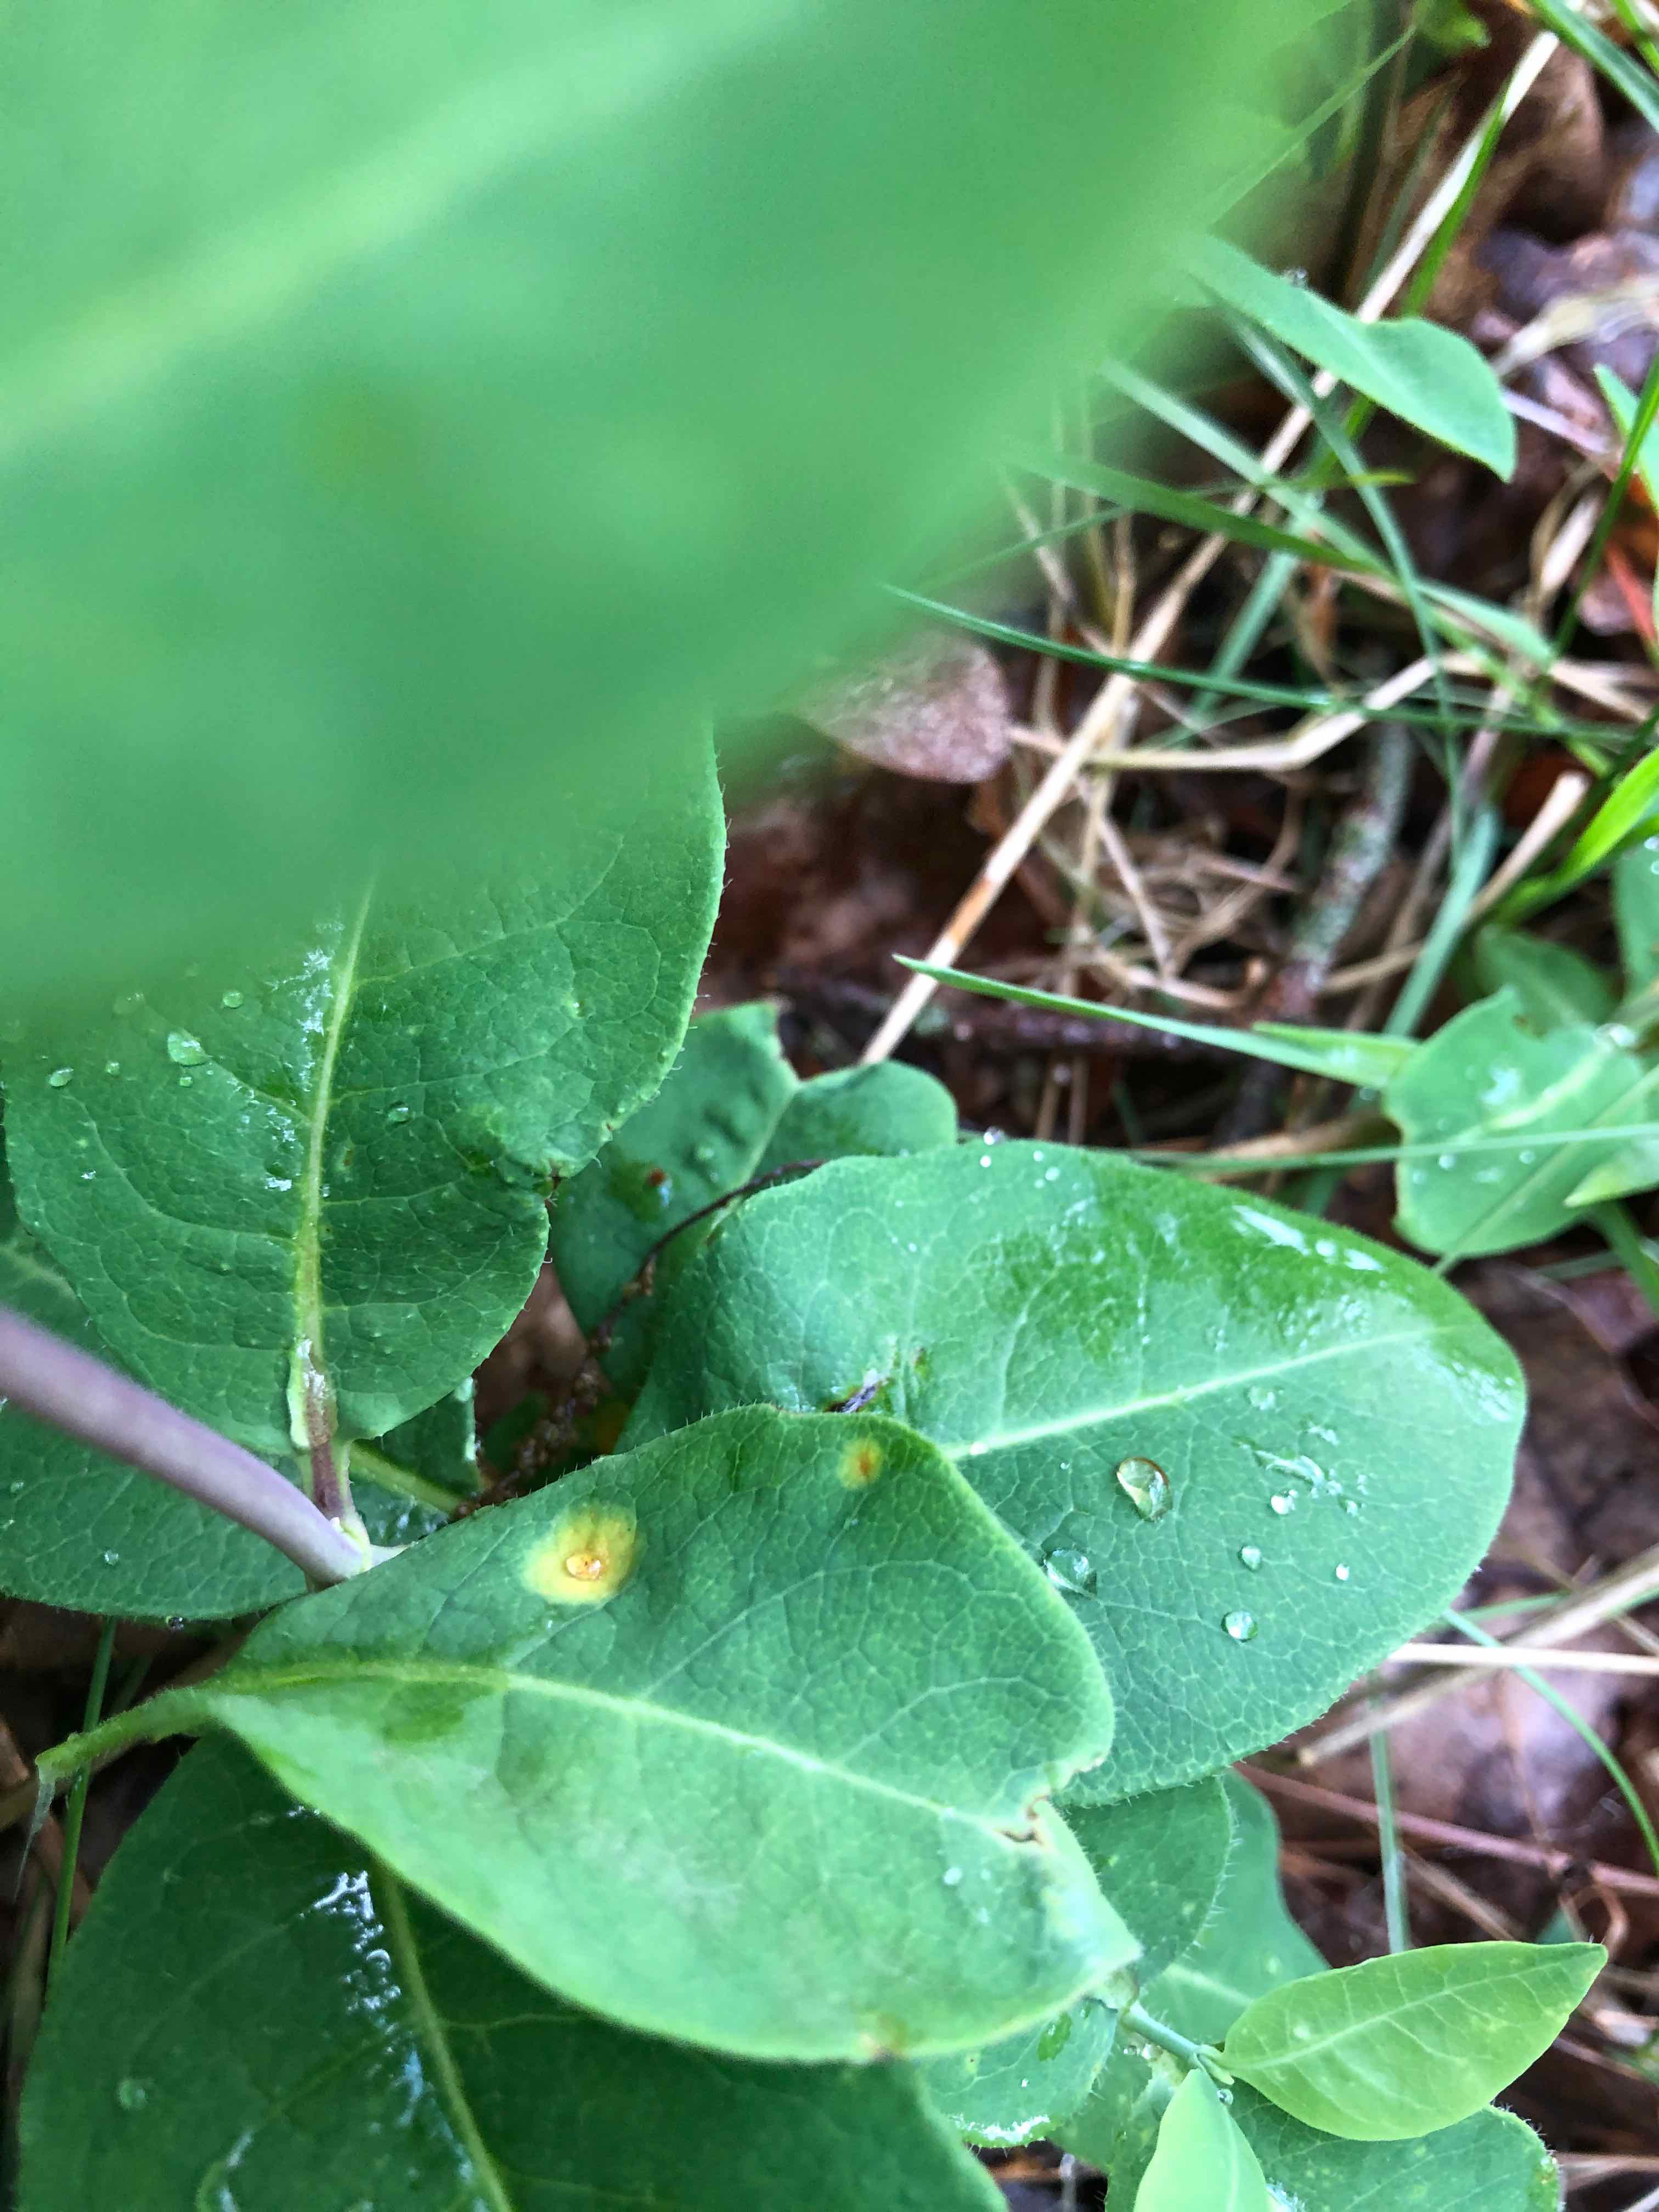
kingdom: Fungi
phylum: Basidiomycota
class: Pucciniomycetes
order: Pucciniales
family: Pucciniaceae
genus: Puccinia
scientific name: Puccinia festucae
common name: gedeblad-tvecellerust
